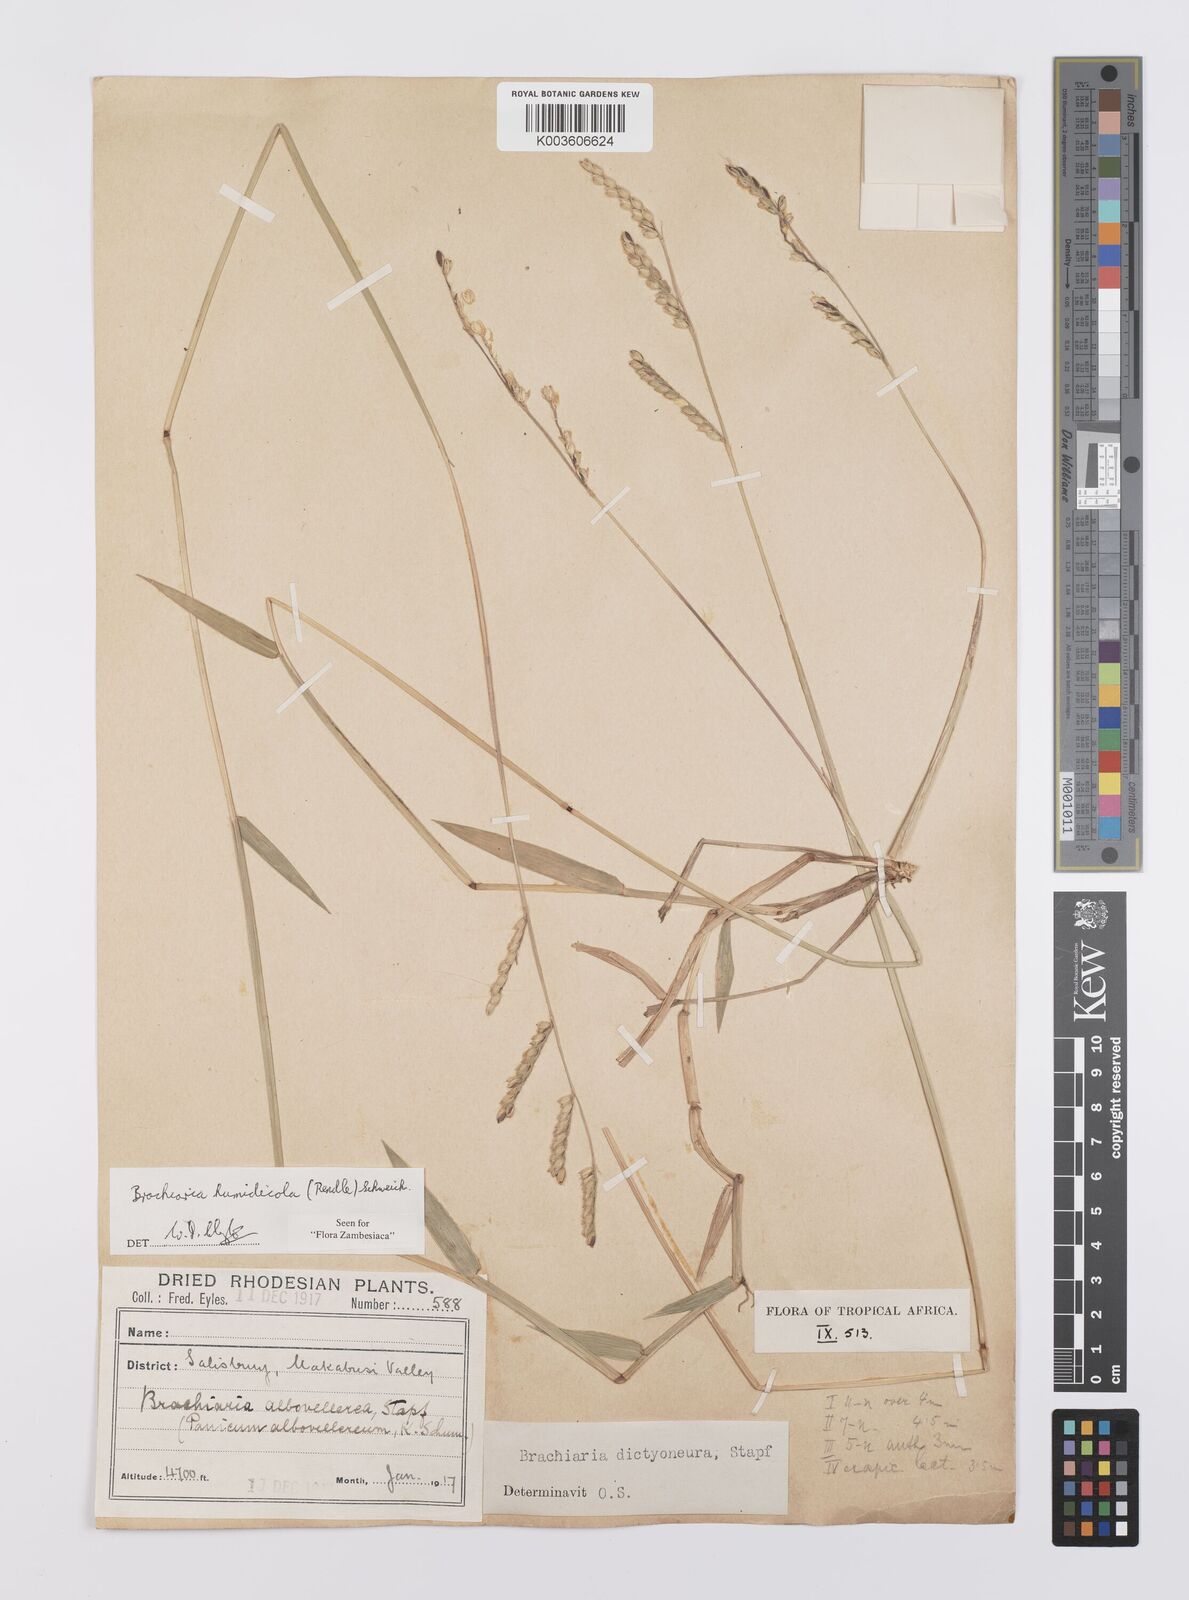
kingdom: Plantae
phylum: Tracheophyta
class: Liliopsida
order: Poales
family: Poaceae
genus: Urochloa
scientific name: Urochloa dictyoneura
